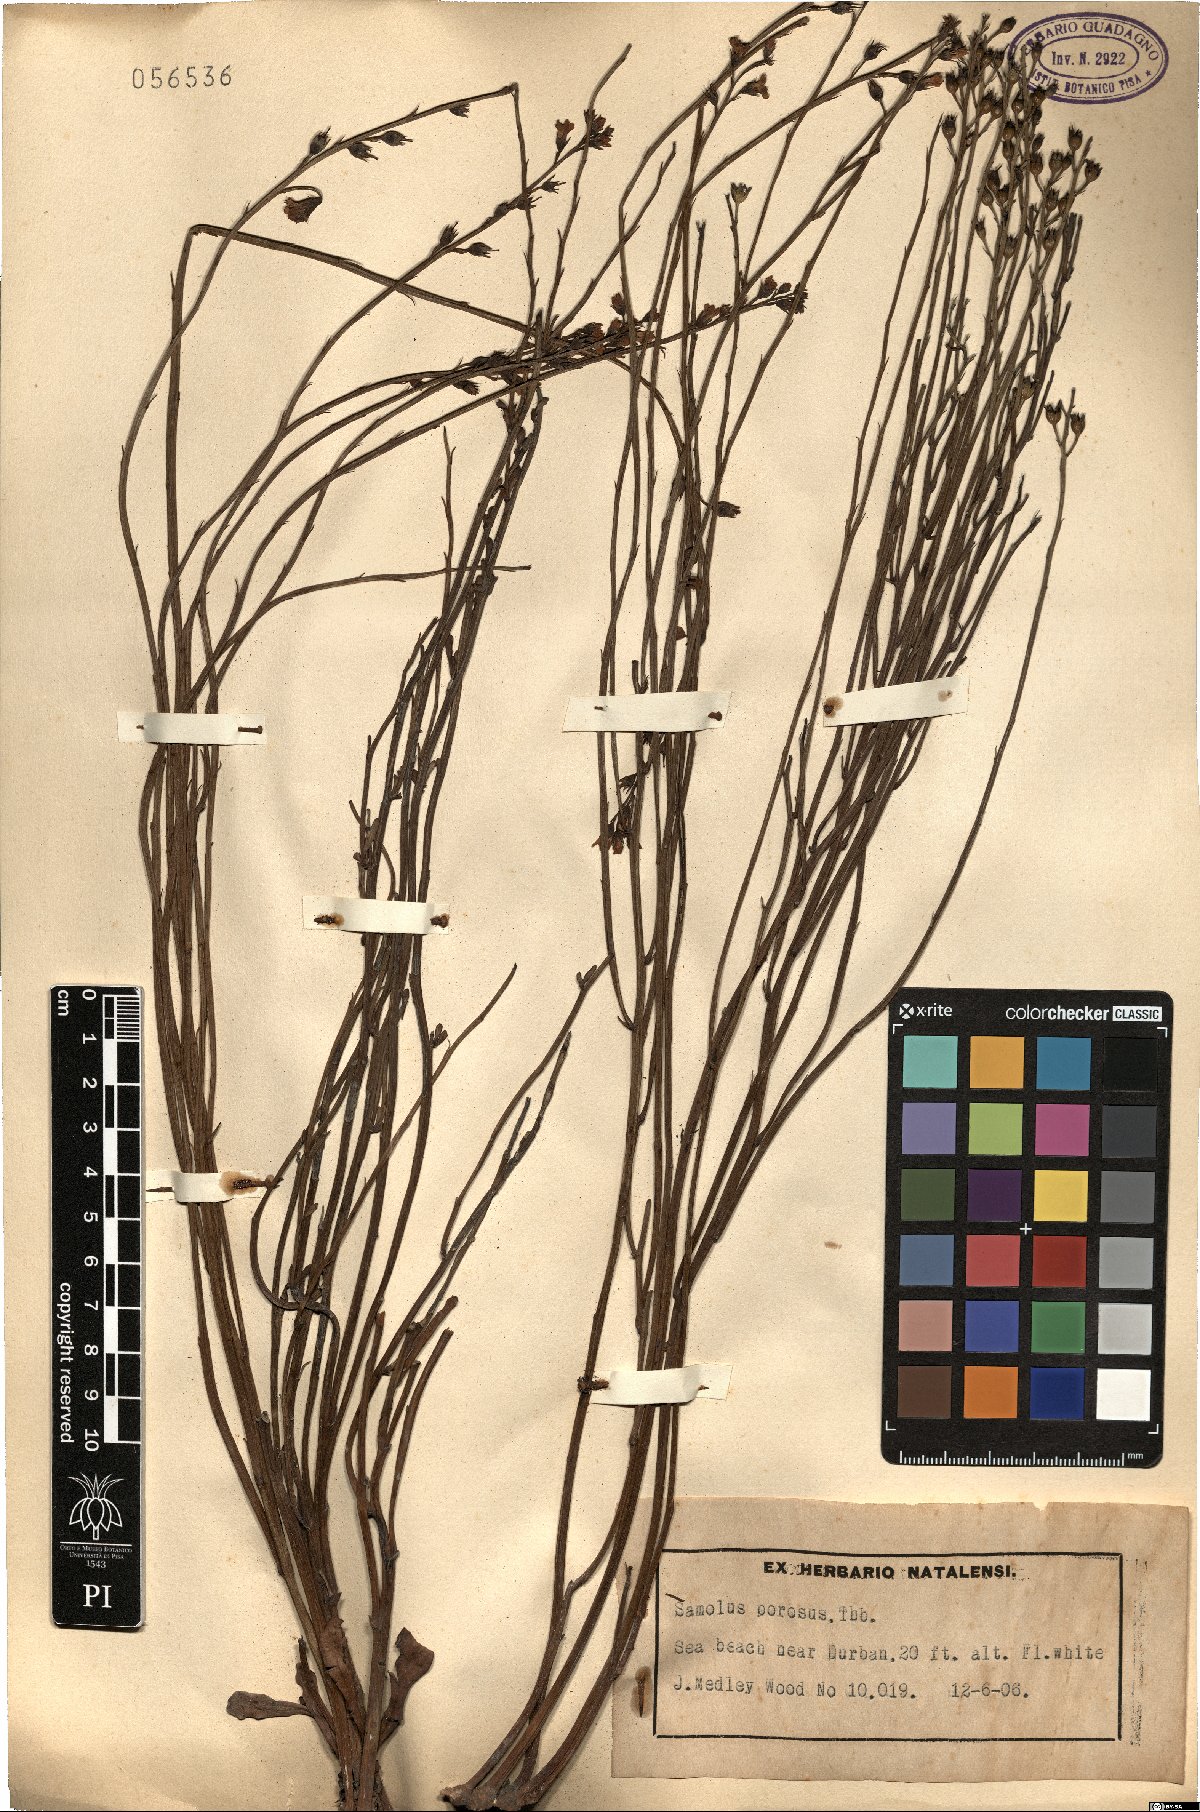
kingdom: Plantae
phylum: Tracheophyta
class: Magnoliopsida
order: Ericales
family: Primulaceae
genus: Samolus
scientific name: Samolus porosus
